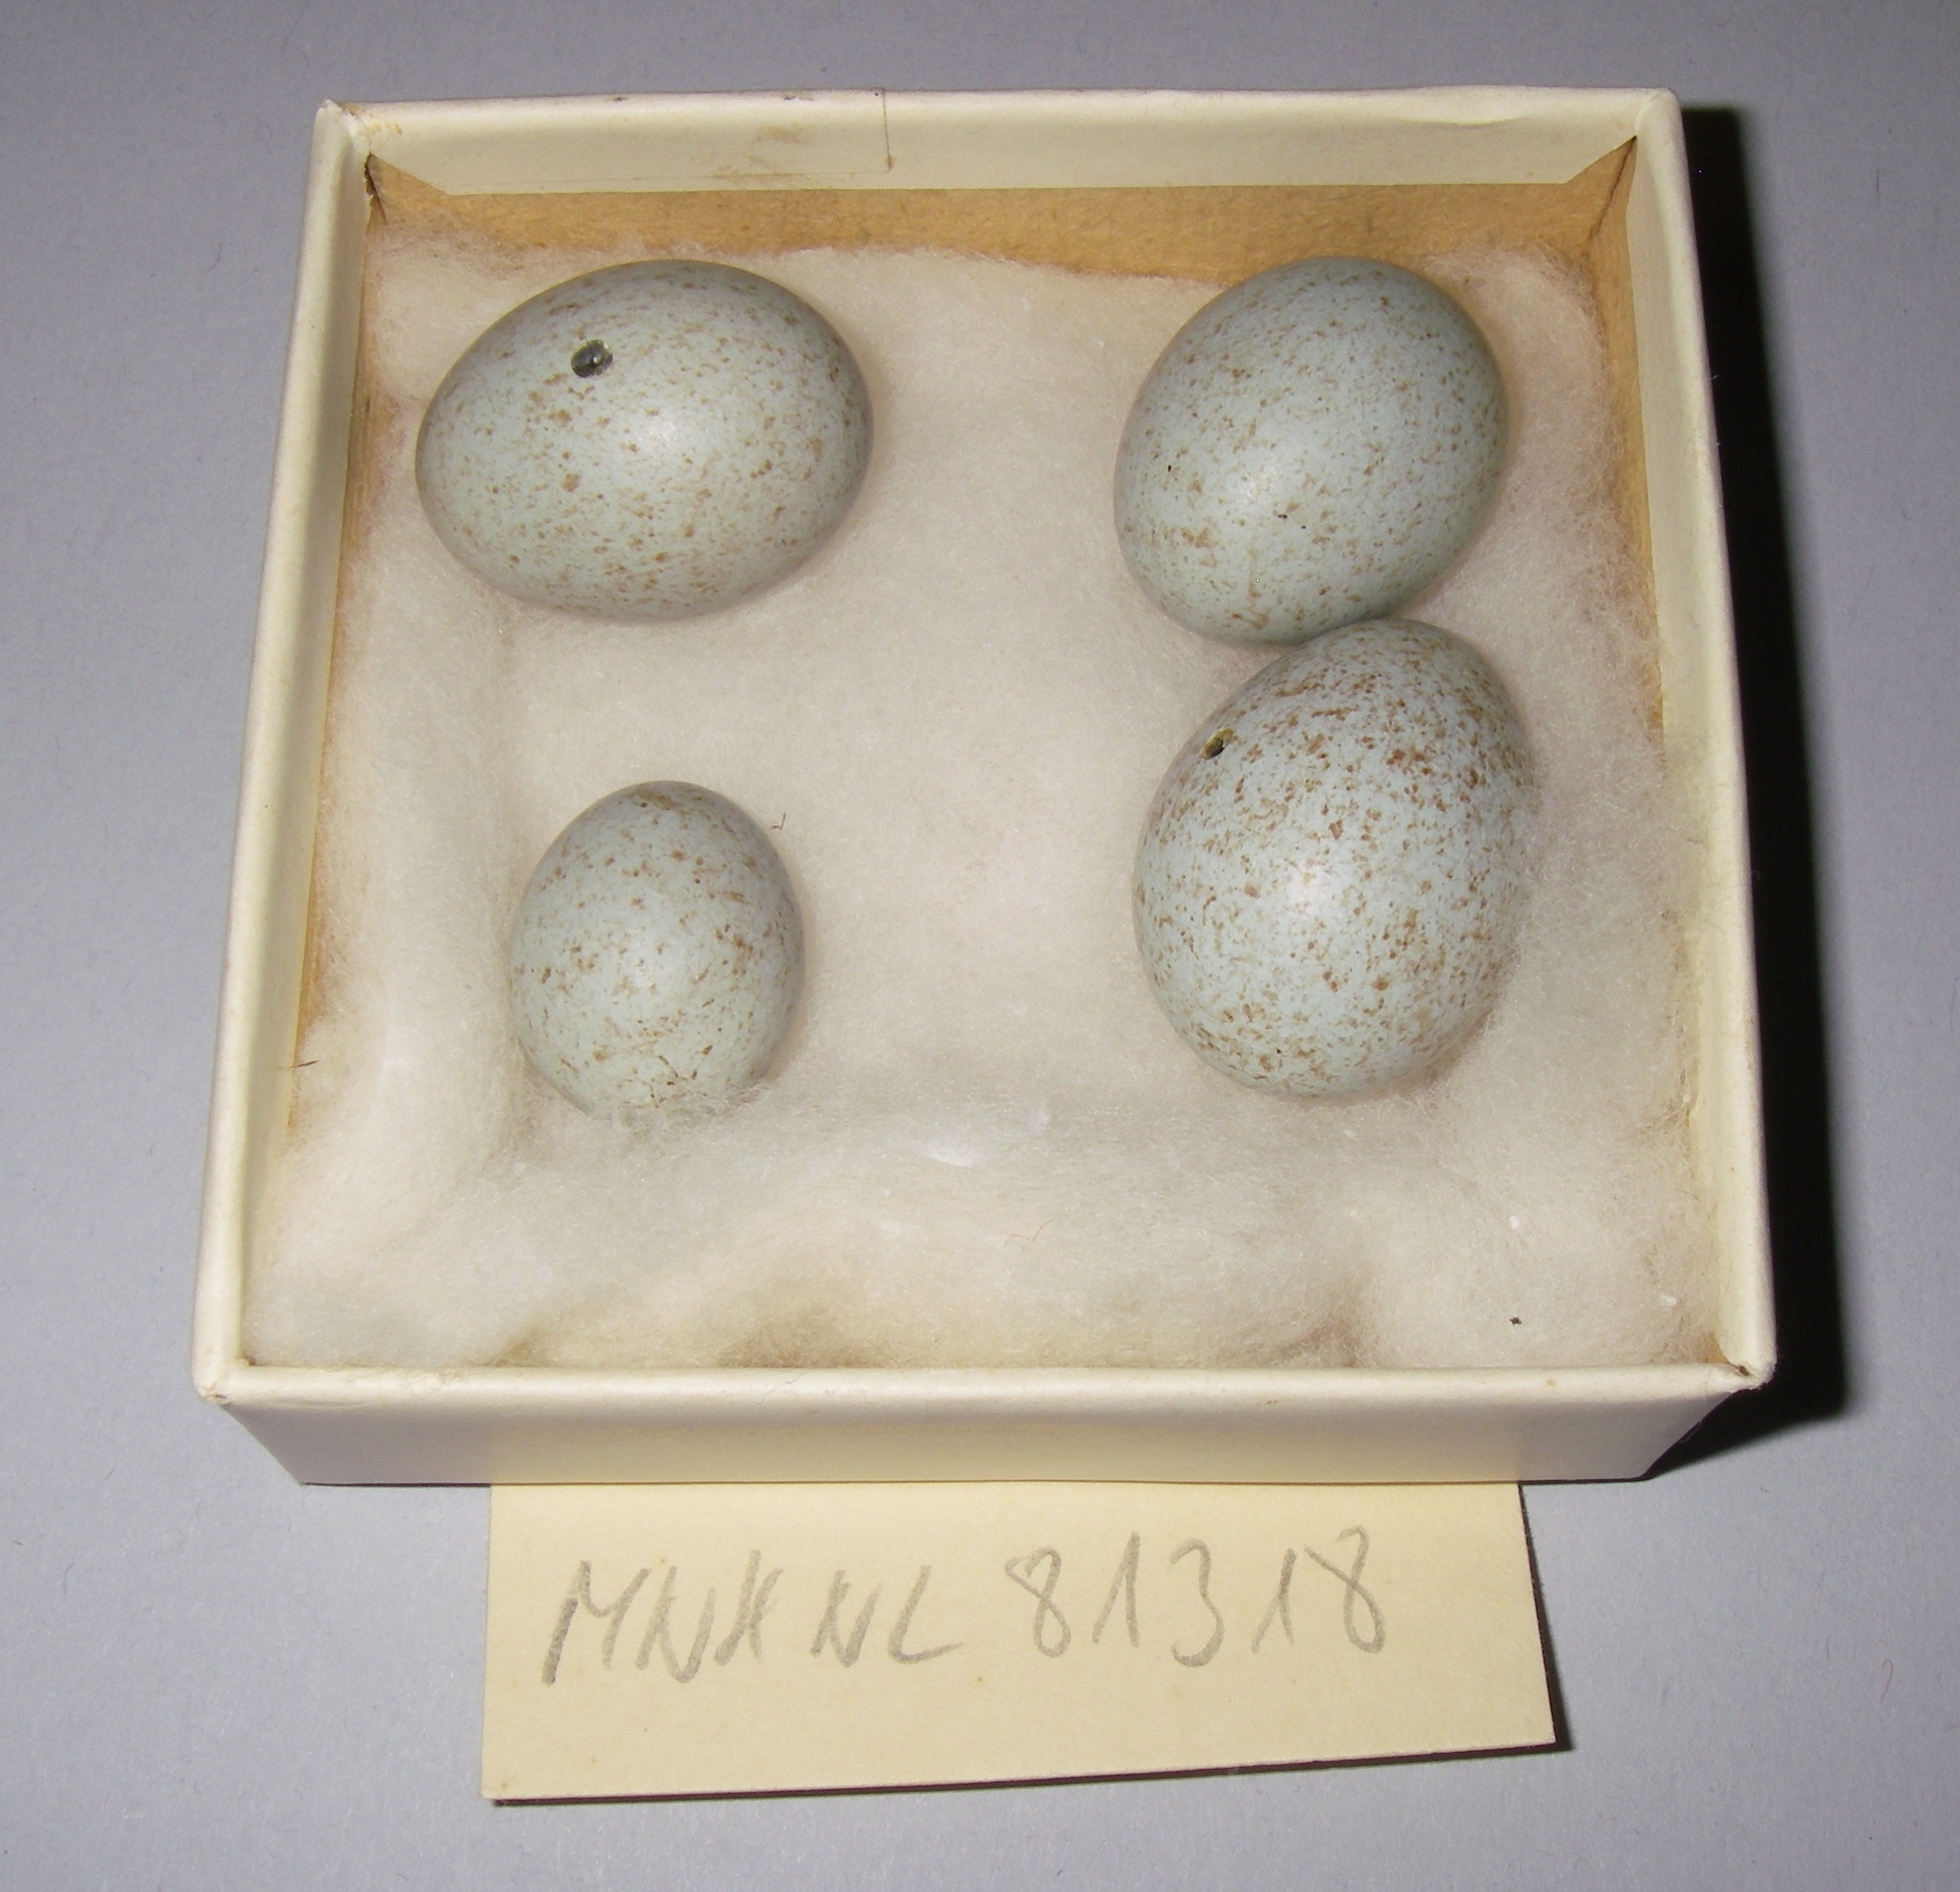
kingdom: Animalia
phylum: Chordata
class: Aves
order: Passeriformes
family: Turdidae
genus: Turdus
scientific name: Turdus merula
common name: Common blackbird
